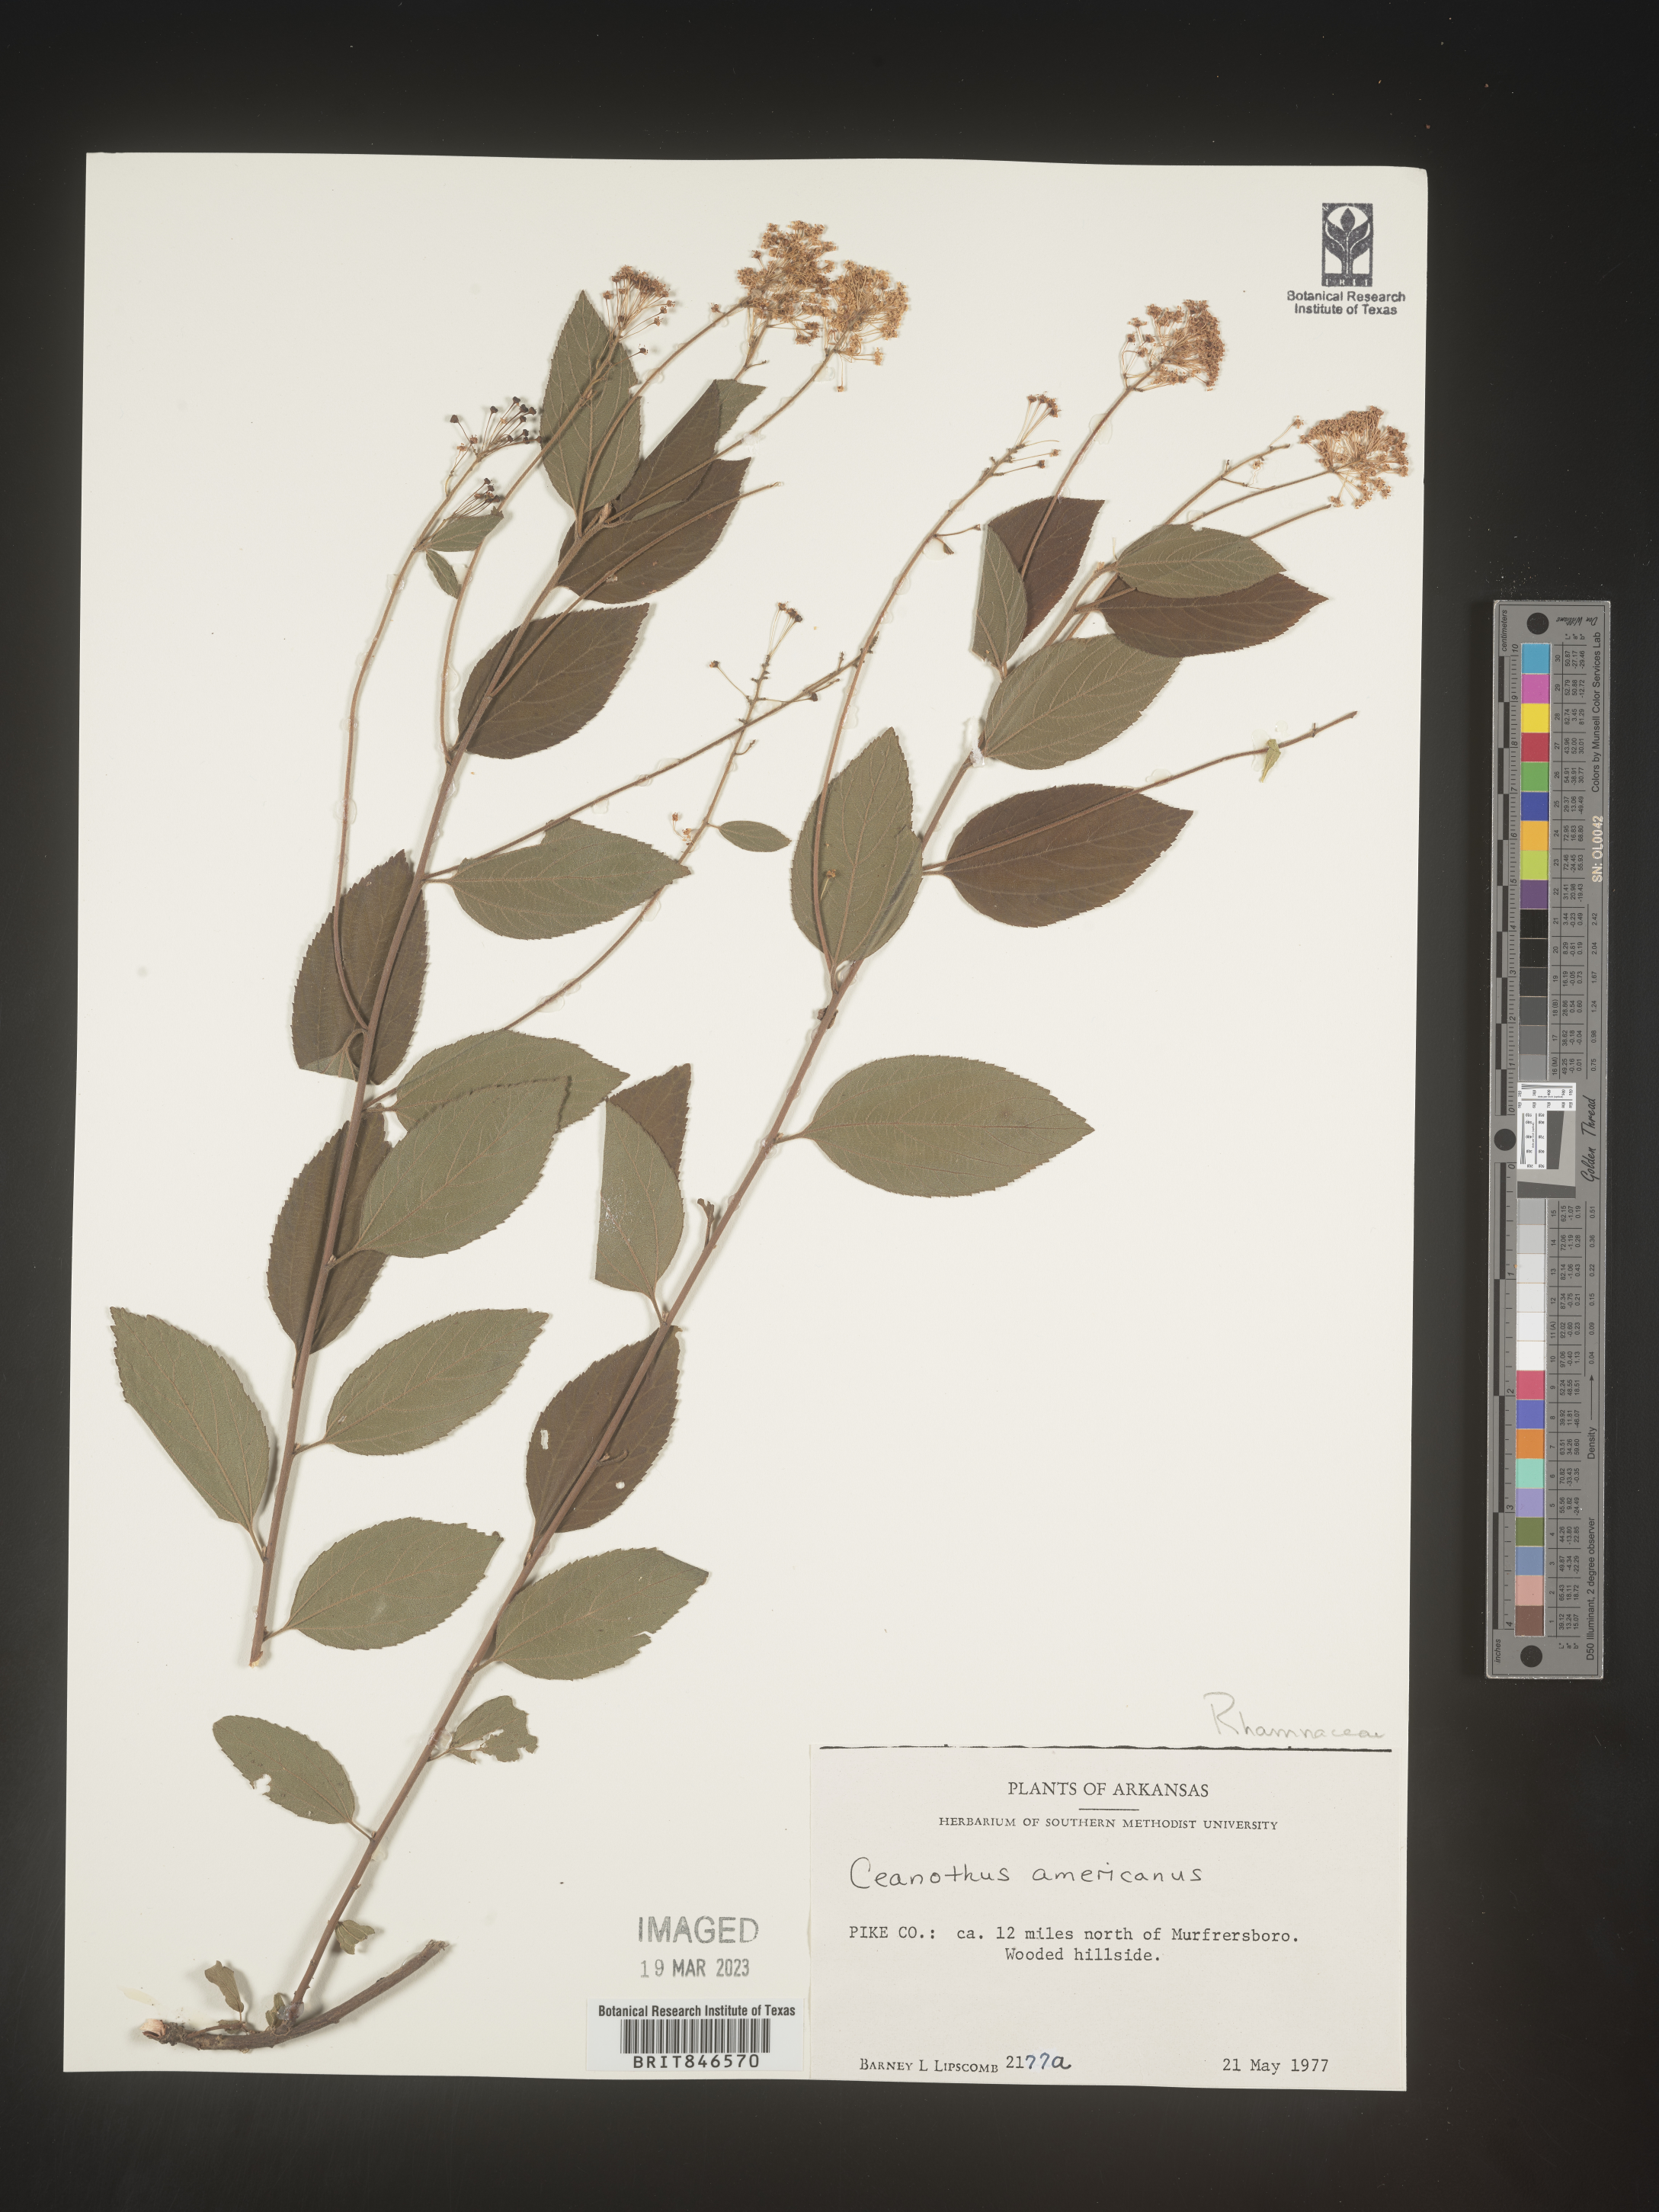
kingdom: Plantae
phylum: Tracheophyta
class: Magnoliopsida
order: Rosales
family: Rhamnaceae
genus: Ceanothus
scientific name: Ceanothus americanus
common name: Redroot
